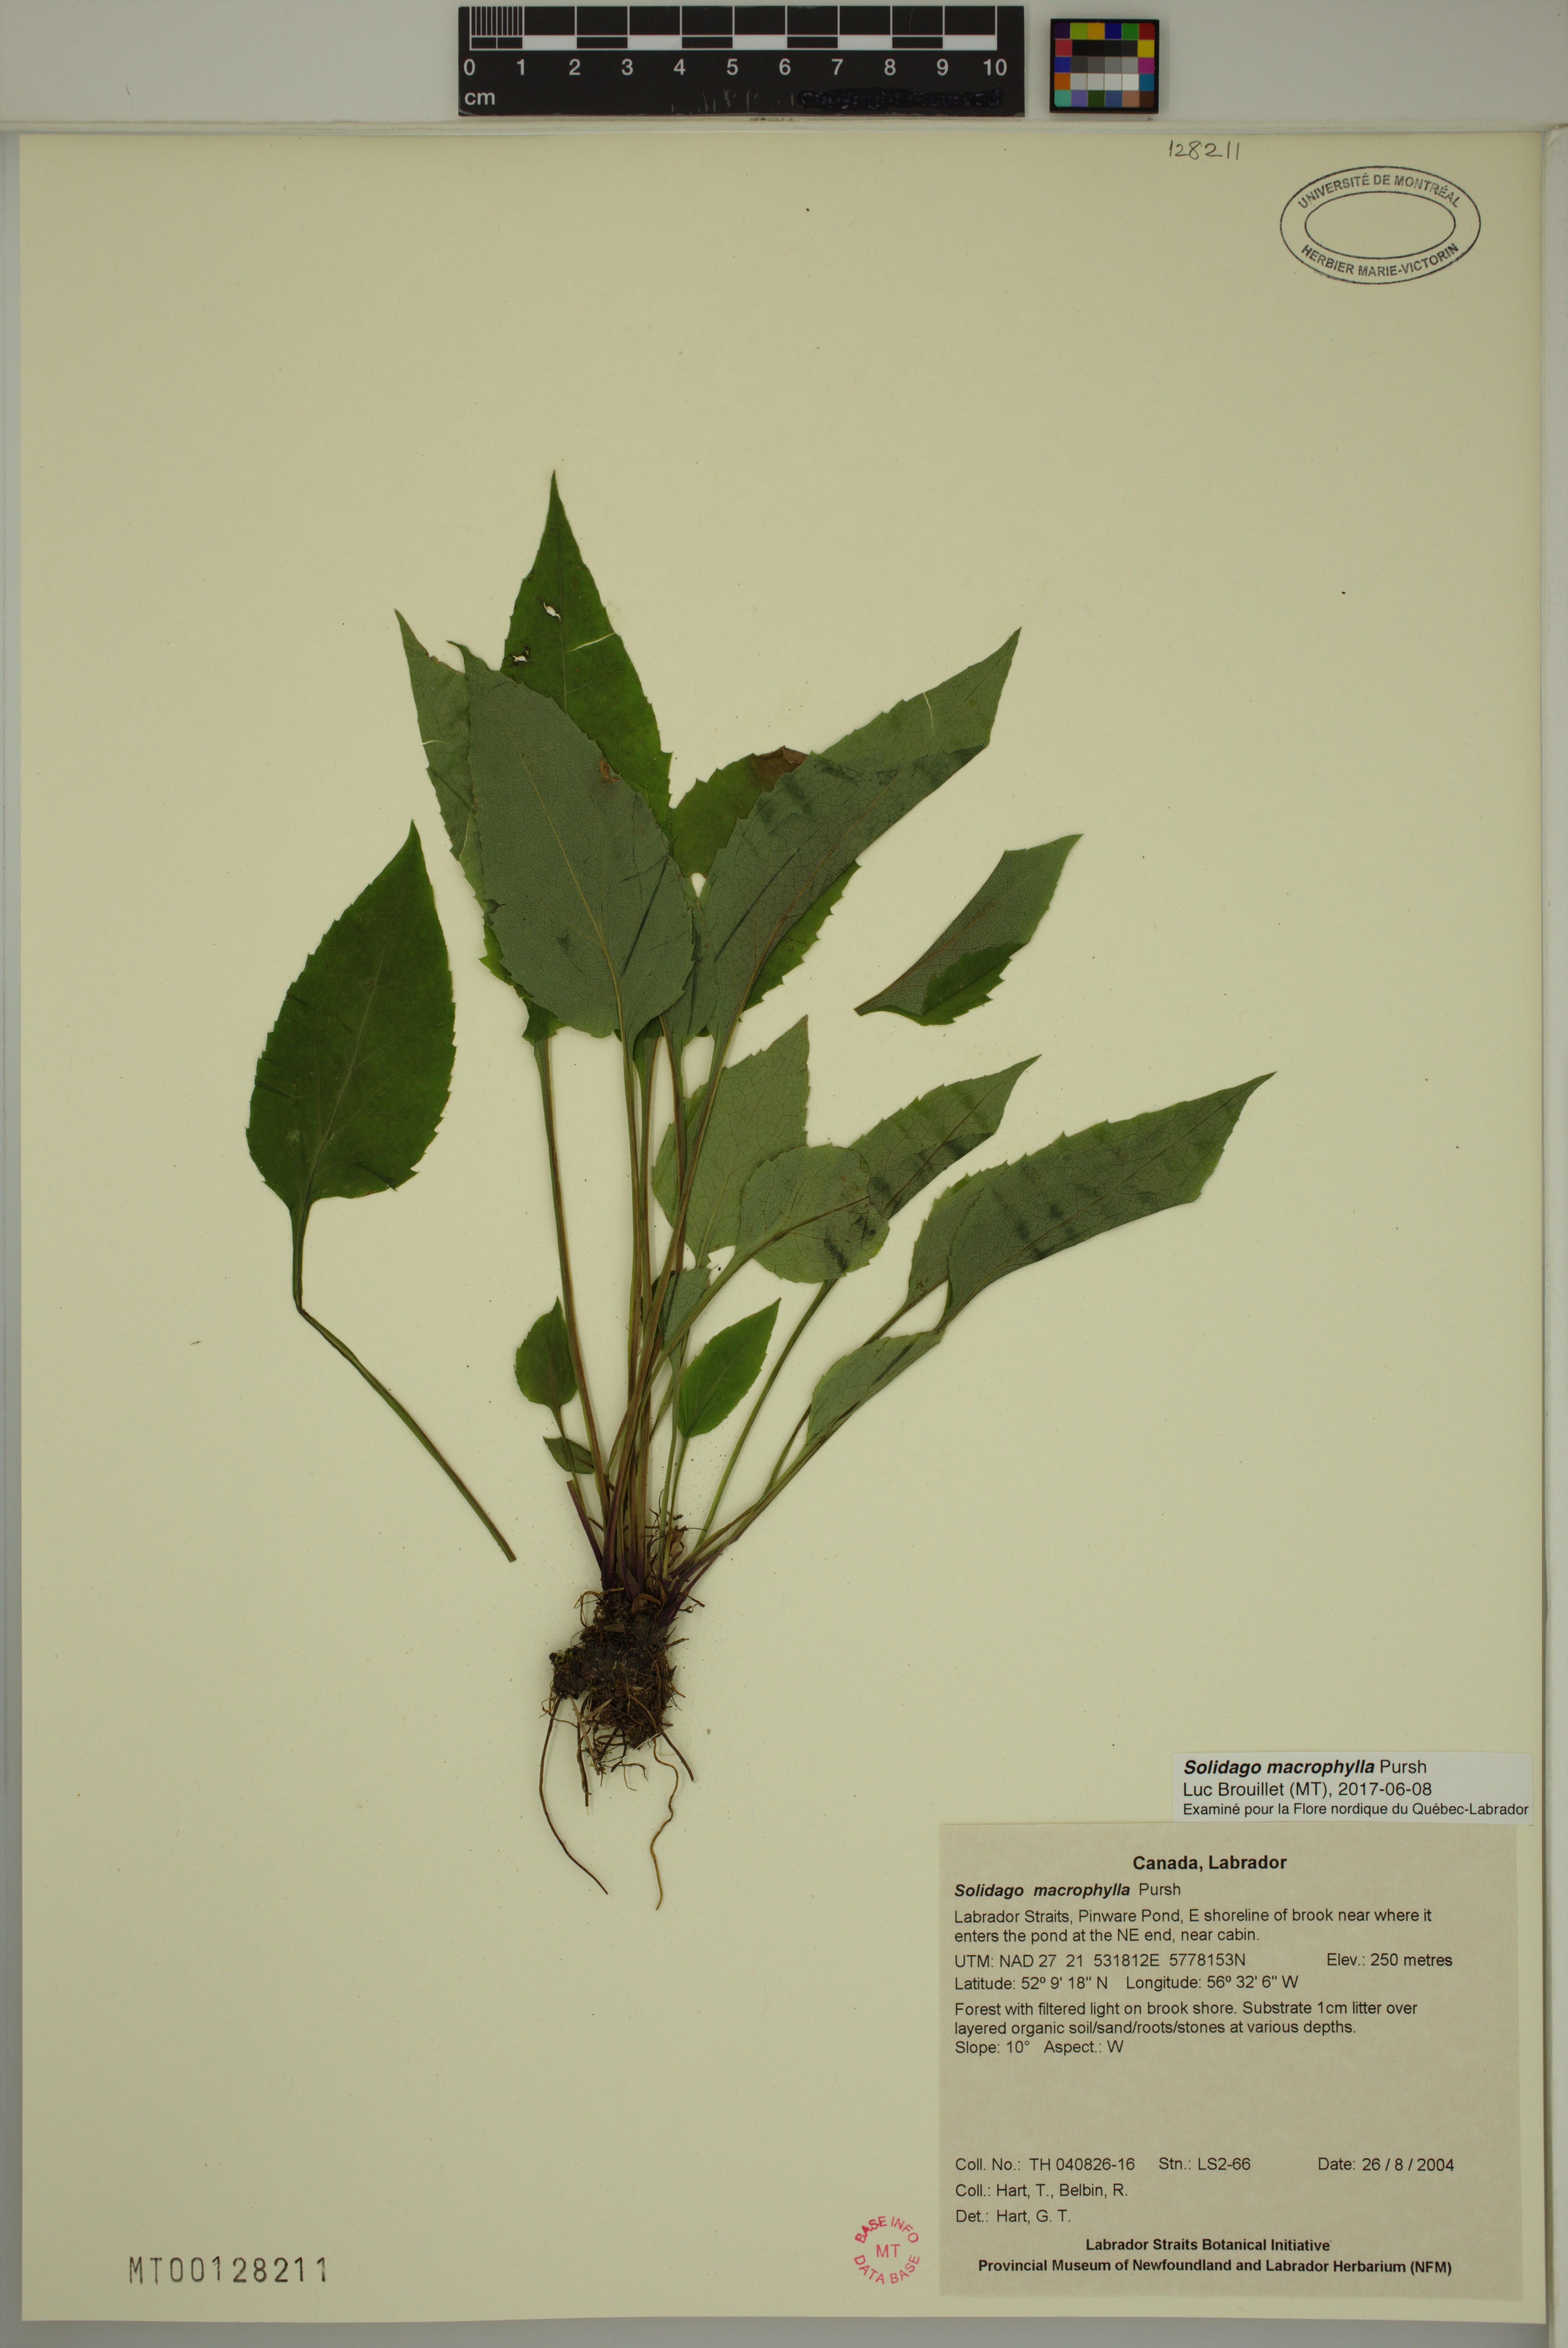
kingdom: Plantae
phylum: Tracheophyta
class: Magnoliopsida
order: Asterales
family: Asteraceae
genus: Solidago
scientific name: Solidago macrophylla
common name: Large-leaved goldenrod
